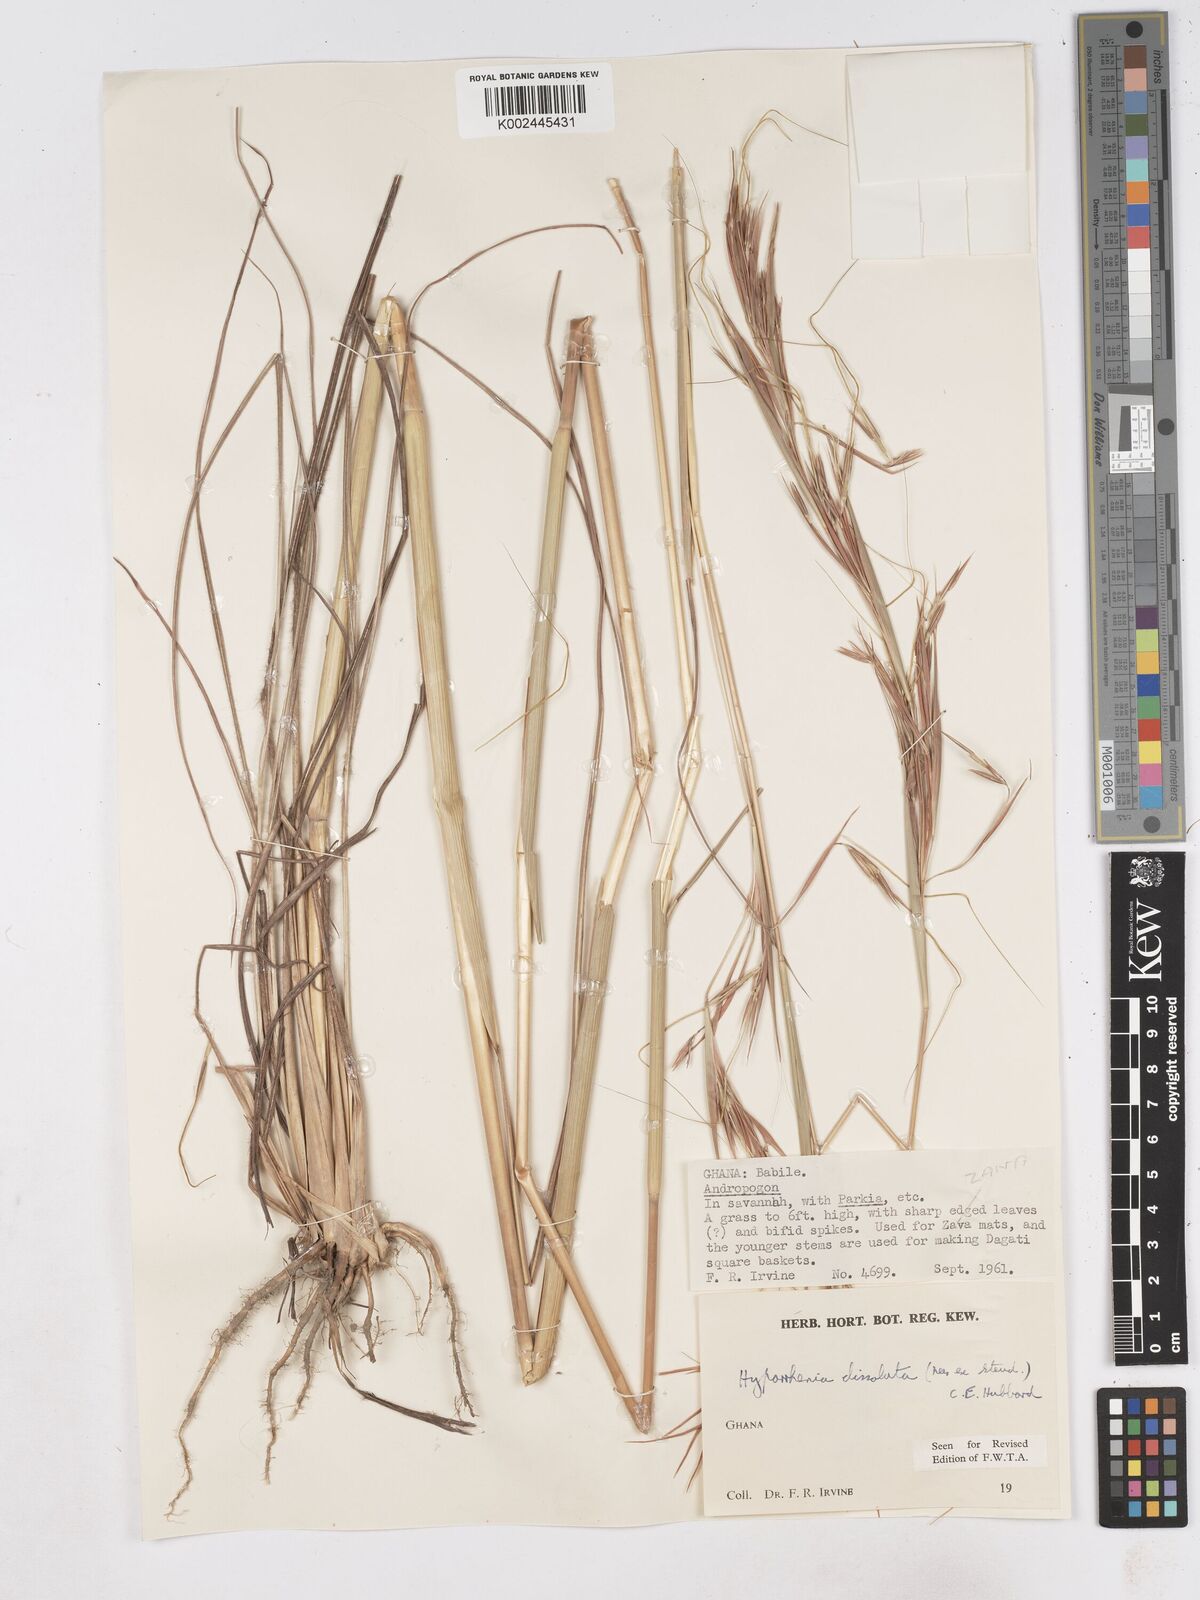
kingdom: Plantae
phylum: Tracheophyta
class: Liliopsida
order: Poales
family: Poaceae
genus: Hyperthelia
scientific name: Hyperthelia dissoluta
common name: Yellow thatching grass
